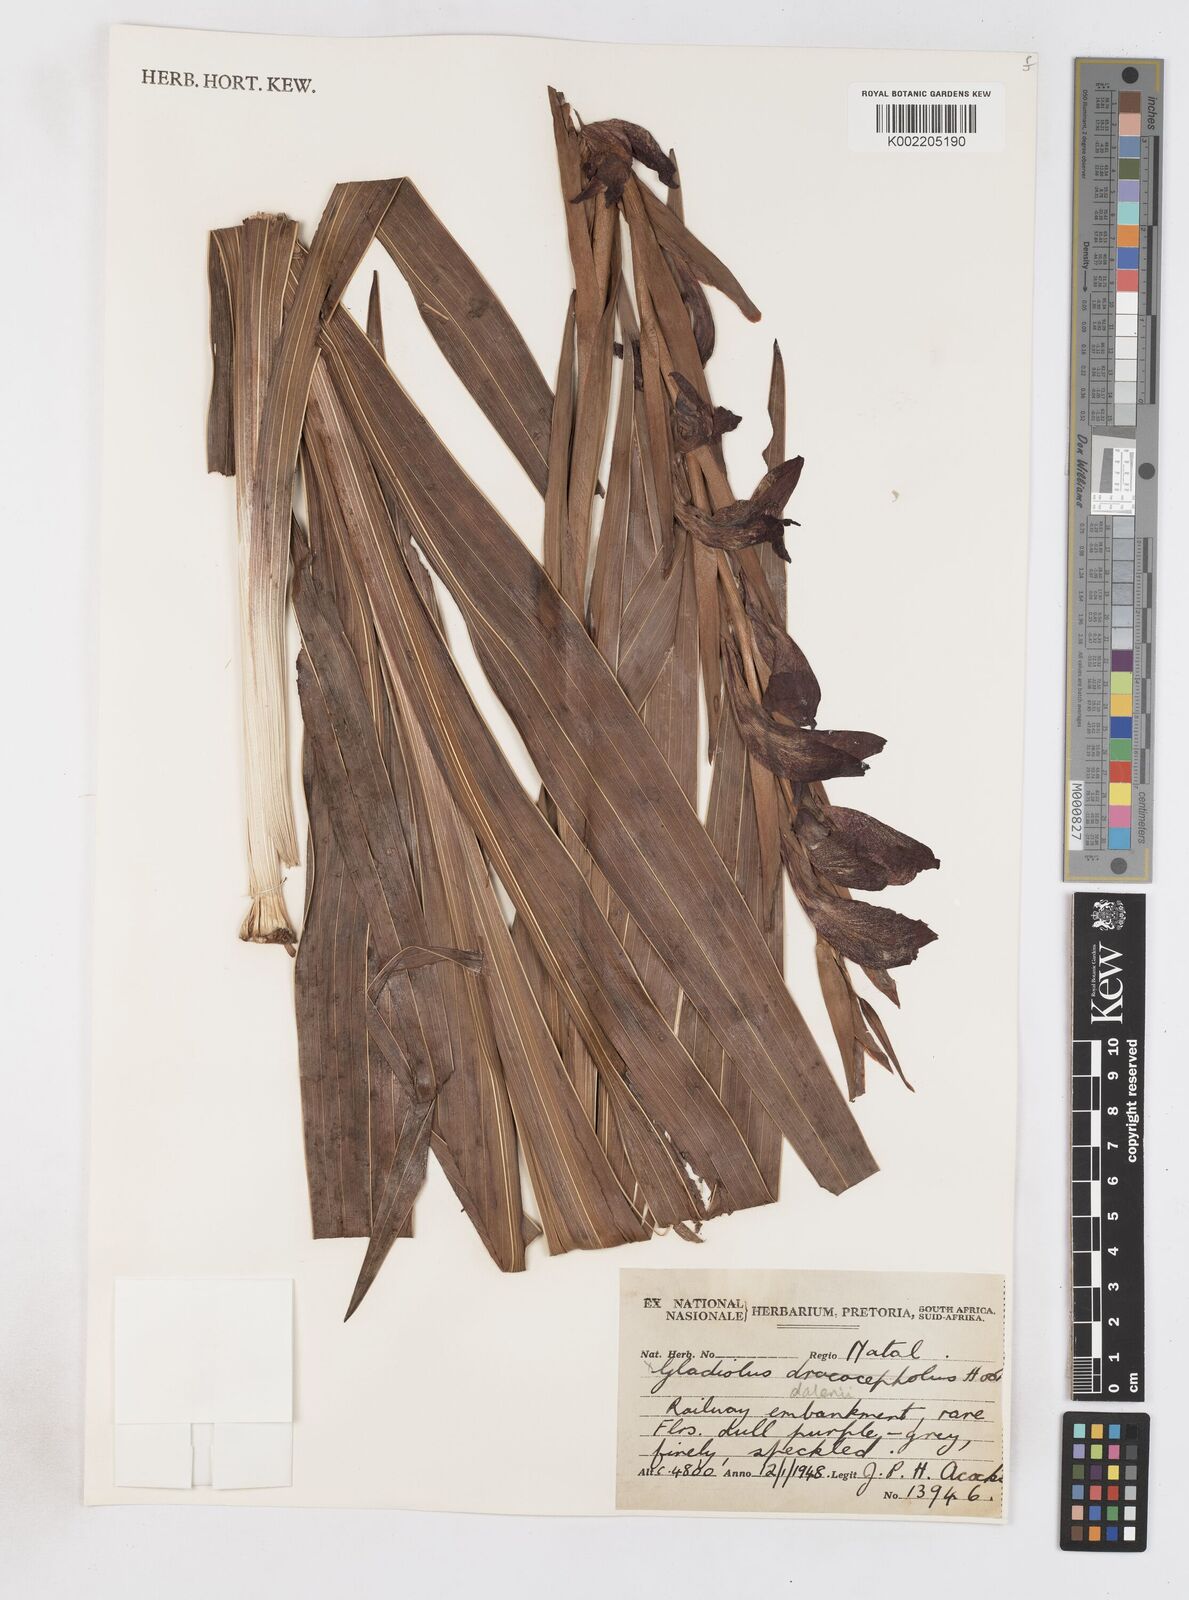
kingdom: Plantae
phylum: Tracheophyta
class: Liliopsida
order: Asparagales
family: Iridaceae
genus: Gladiolus
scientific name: Gladiolus dalenii
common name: Cornflag
